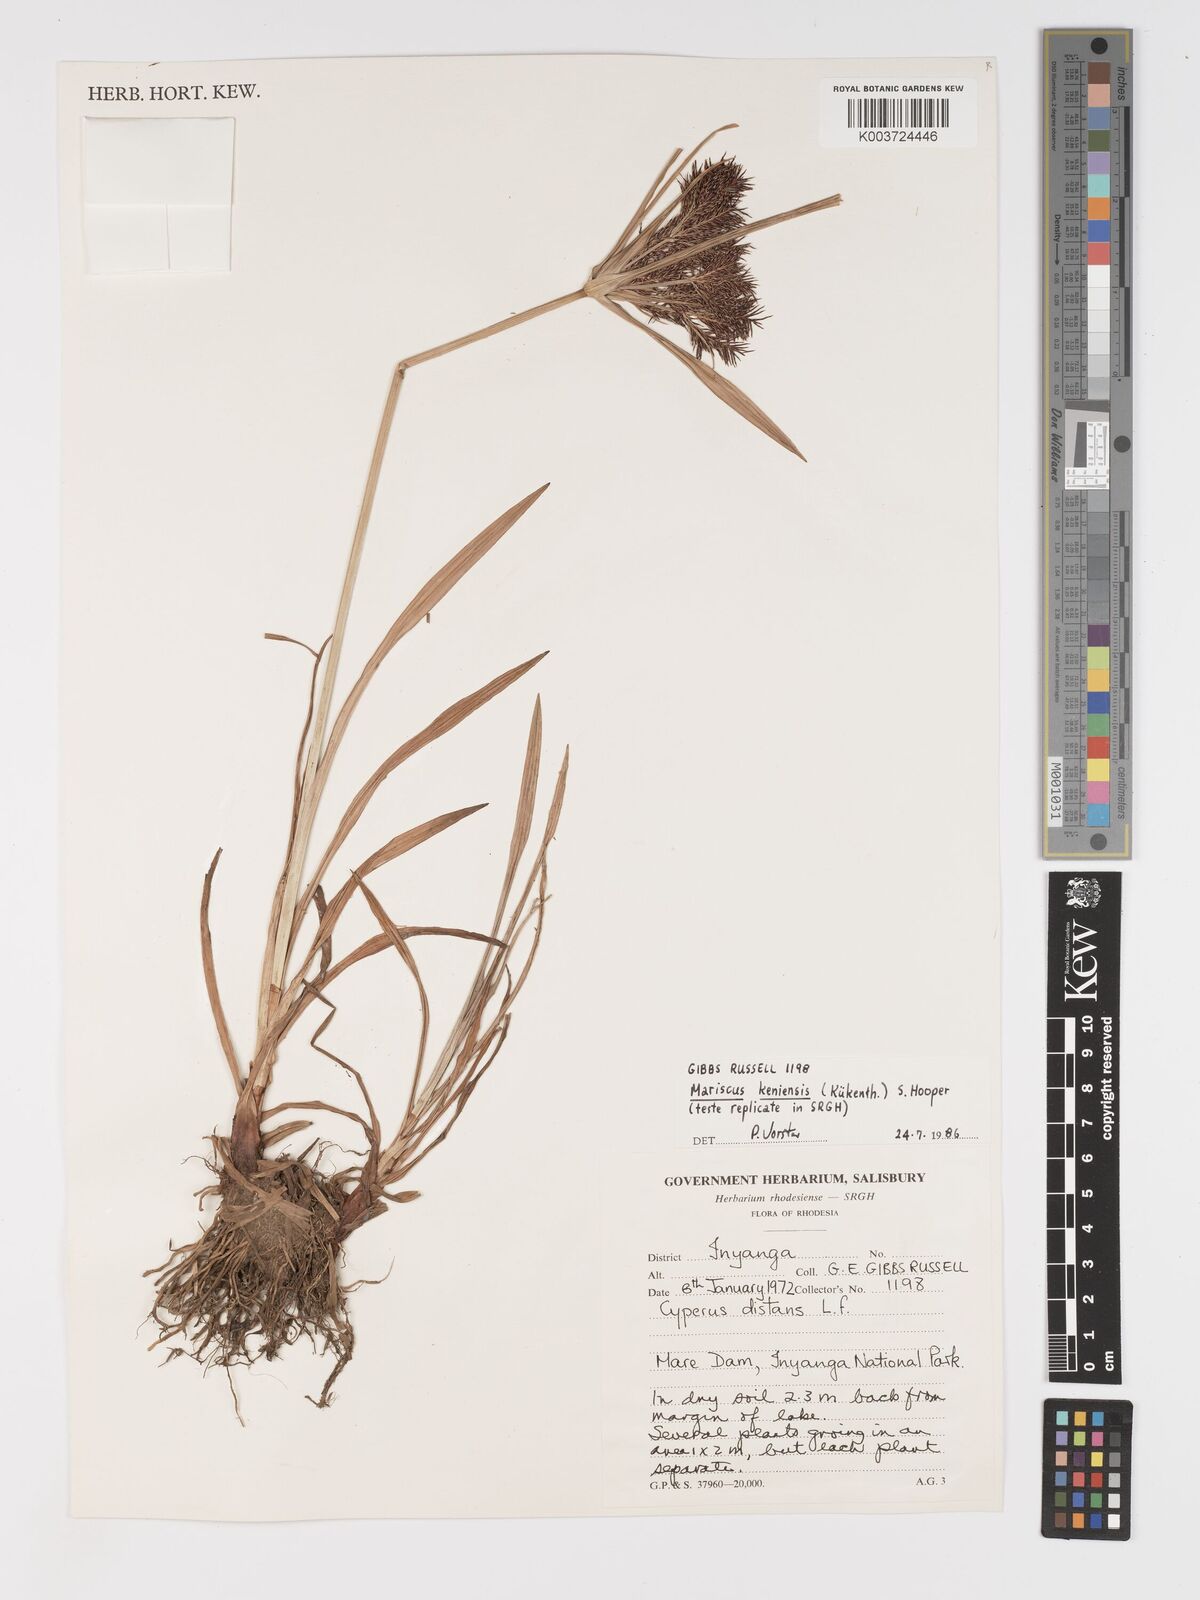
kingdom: Plantae
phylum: Tracheophyta
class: Liliopsida
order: Poales
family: Cyperaceae
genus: Cyperus
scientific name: Cyperus
